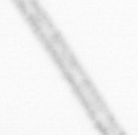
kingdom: Chromista
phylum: Ochrophyta
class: Bacillariophyceae
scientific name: Bacillariophyceae
